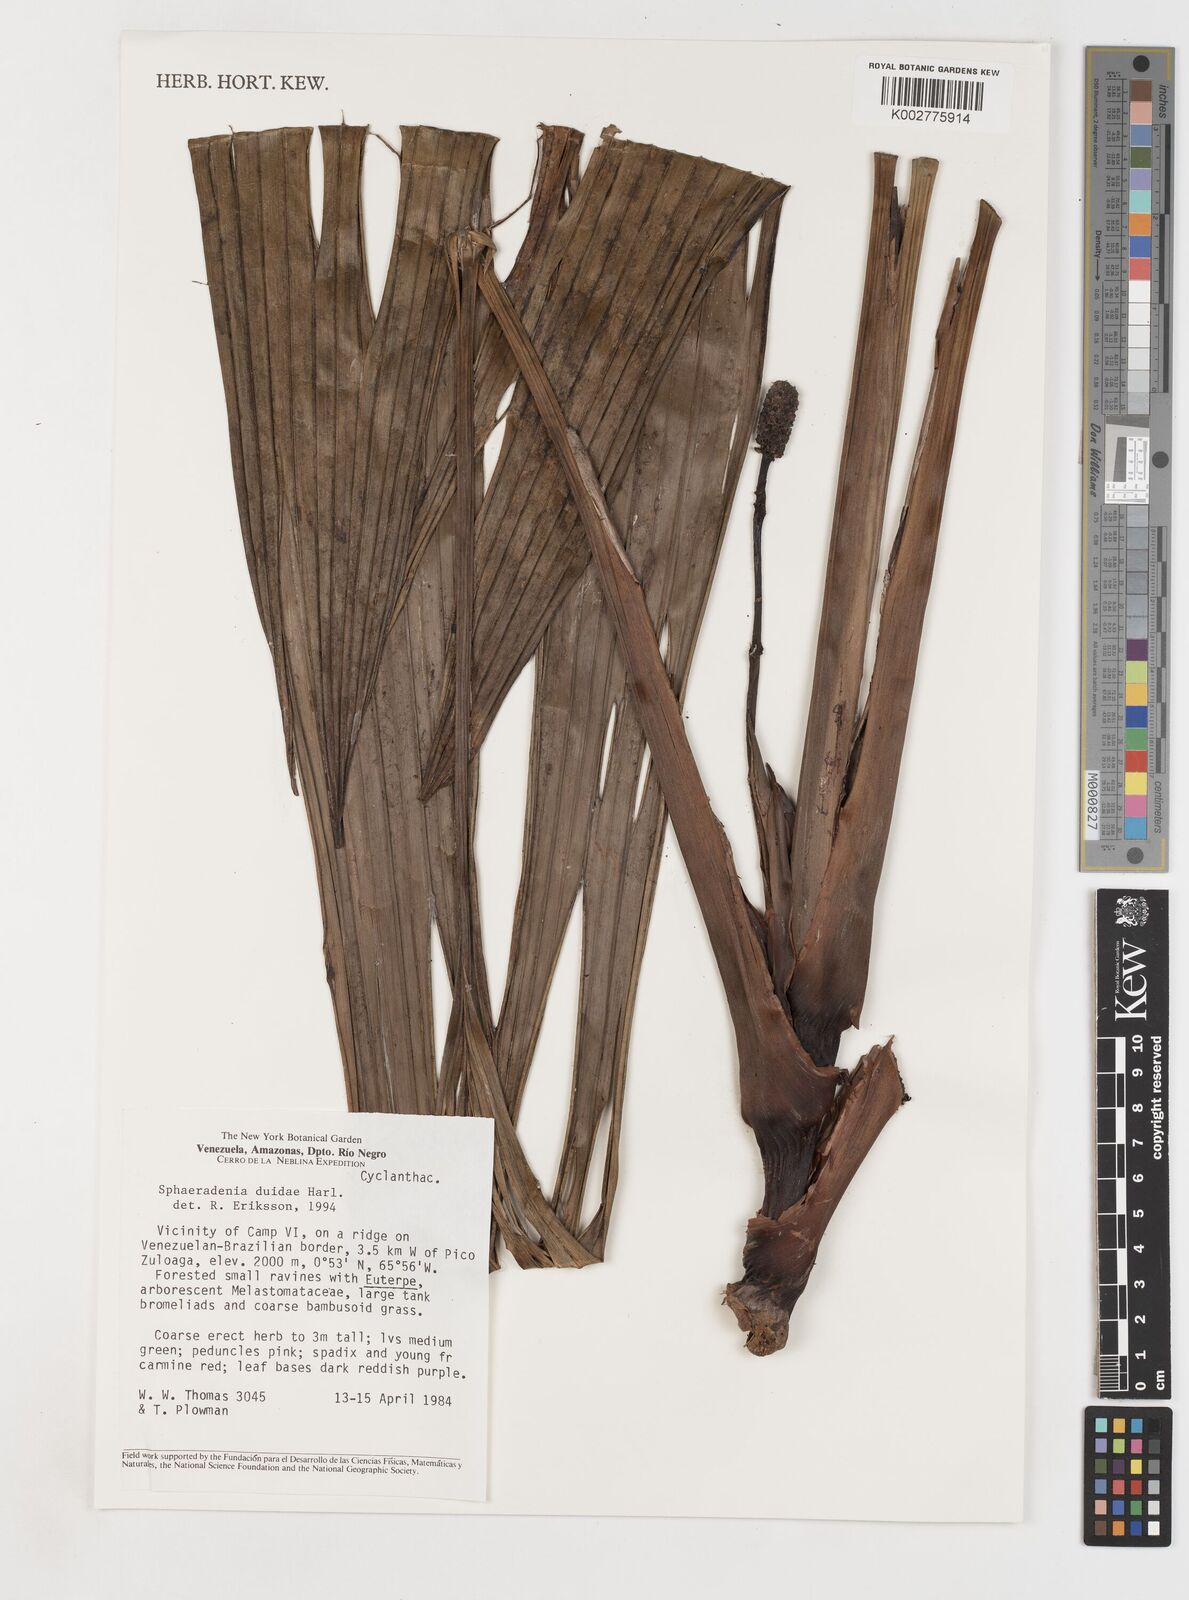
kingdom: Plantae
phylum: Tracheophyta
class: Liliopsida
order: Pandanales
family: Cyclanthaceae
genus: Sphaeradenia
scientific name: Sphaeradenia duidae
